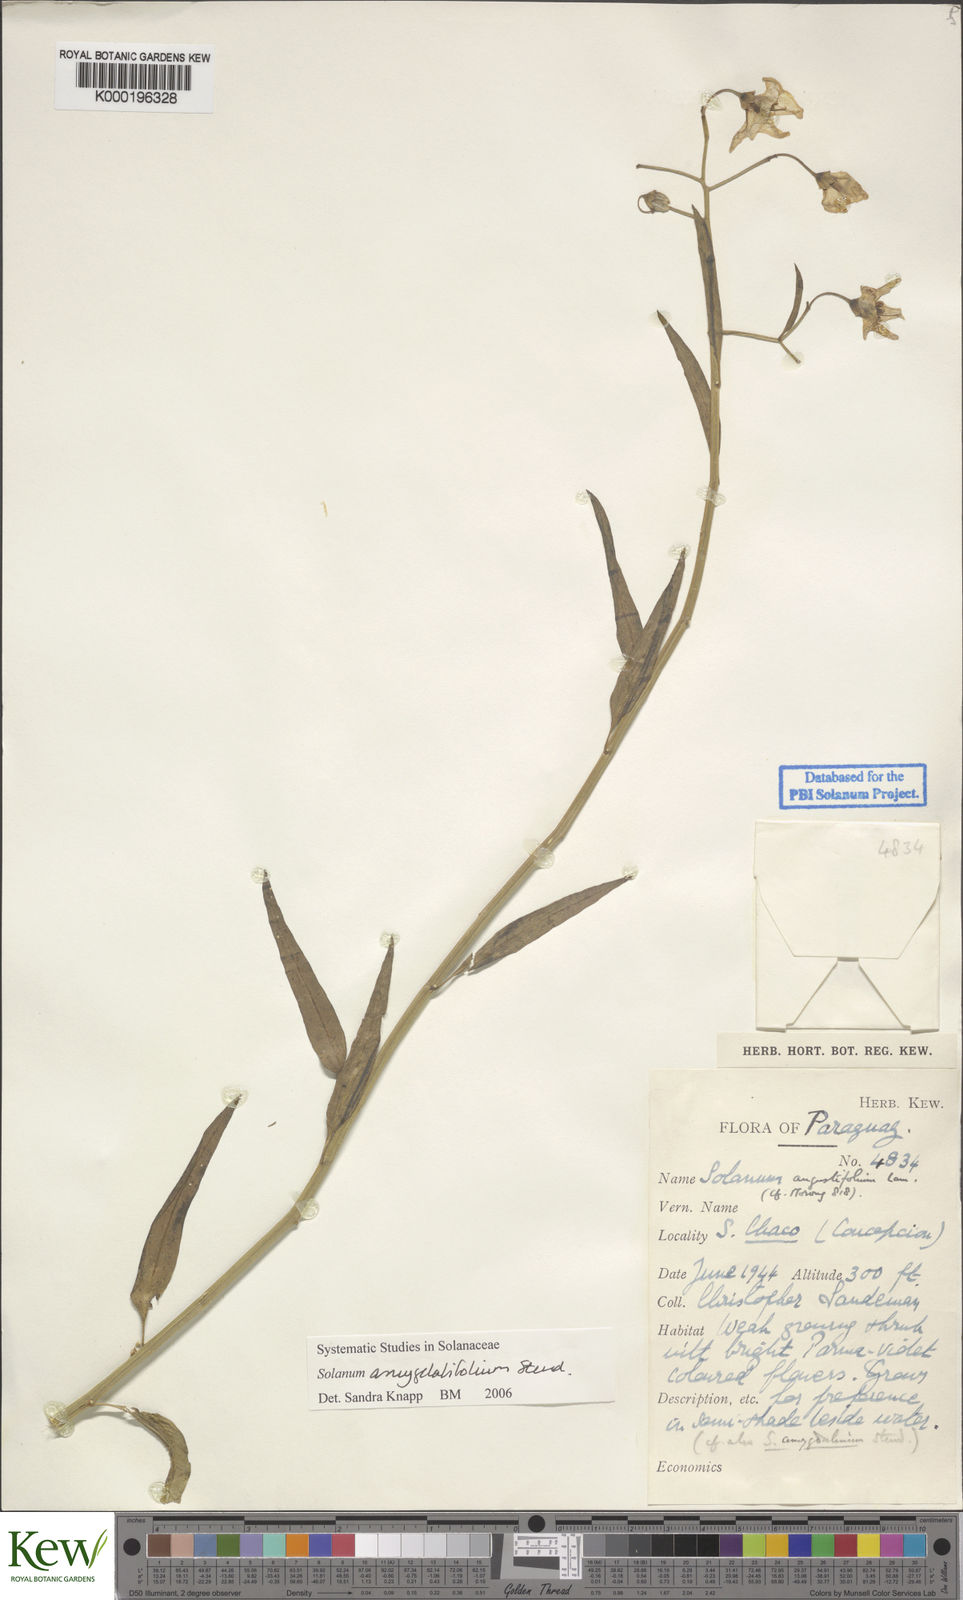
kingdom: Plantae
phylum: Tracheophyta
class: Magnoliopsida
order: Solanales
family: Solanaceae
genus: Solanum
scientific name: Solanum amygdalifolium
